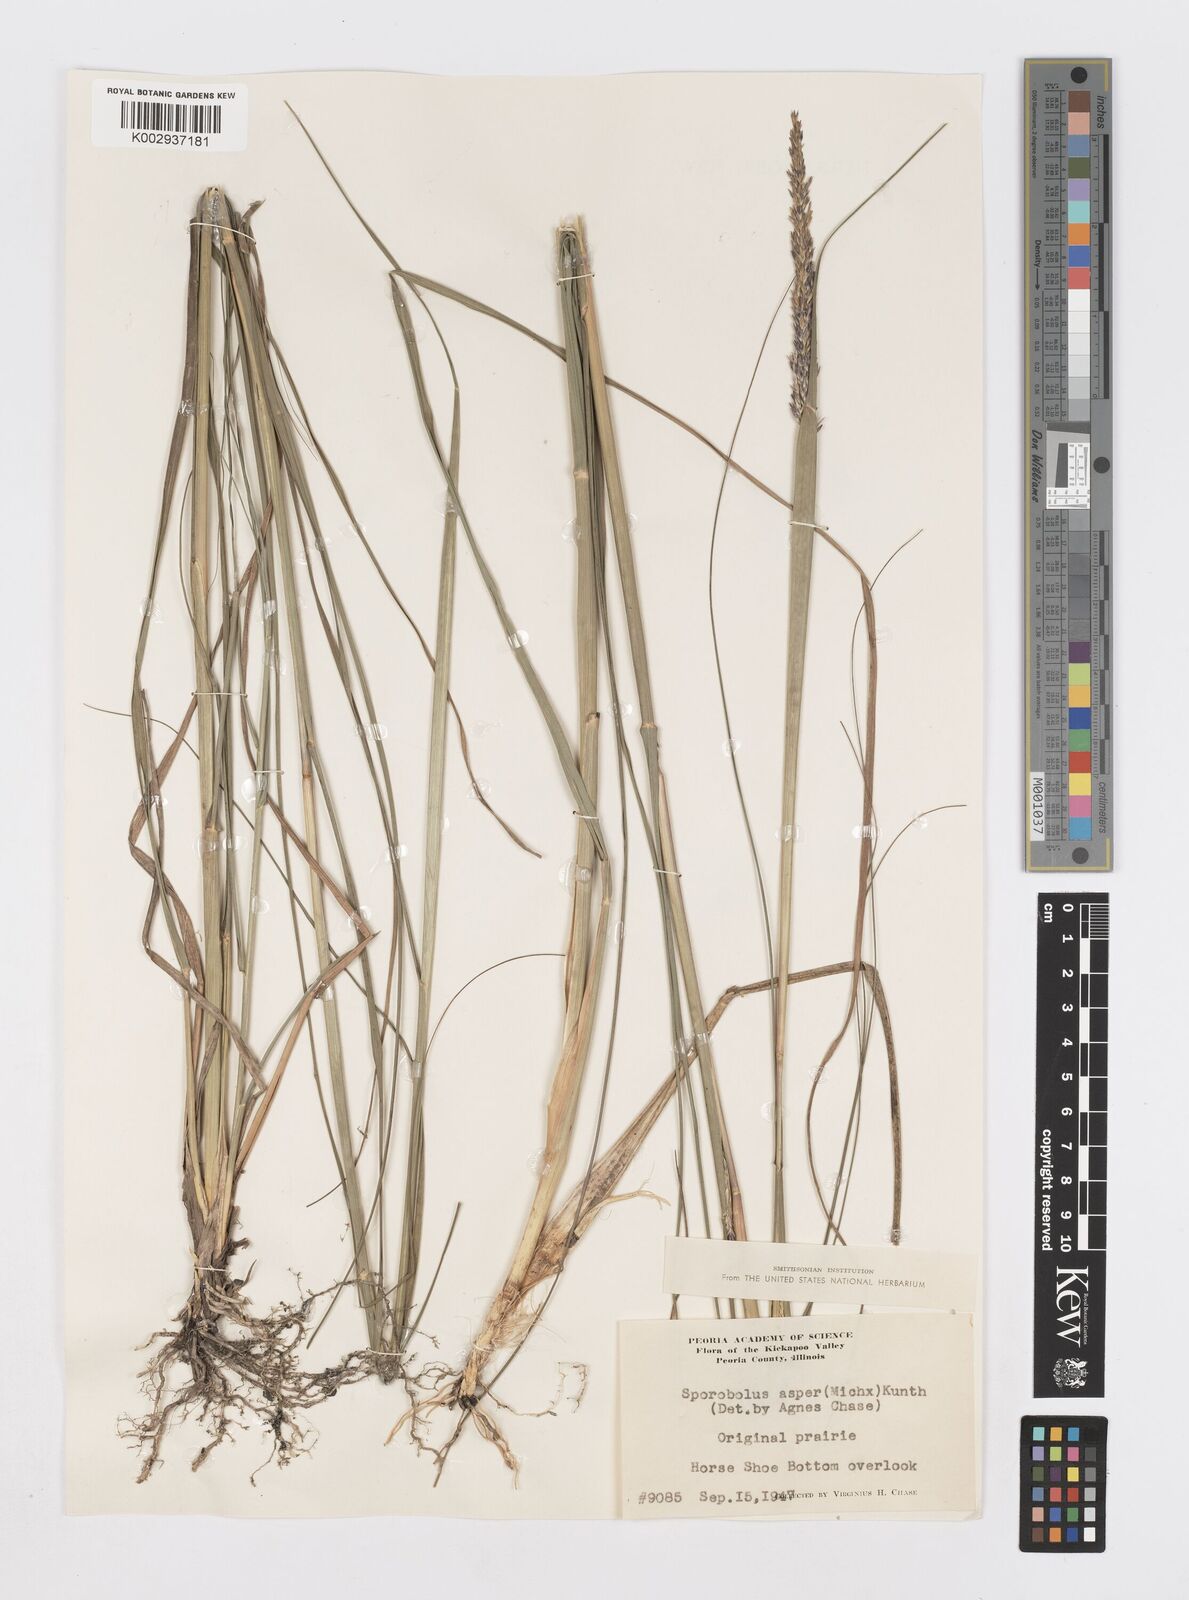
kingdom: Plantae
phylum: Tracheophyta
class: Liliopsida
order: Poales
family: Poaceae
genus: Sporobolus
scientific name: Sporobolus compositus
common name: Rough dropseed
